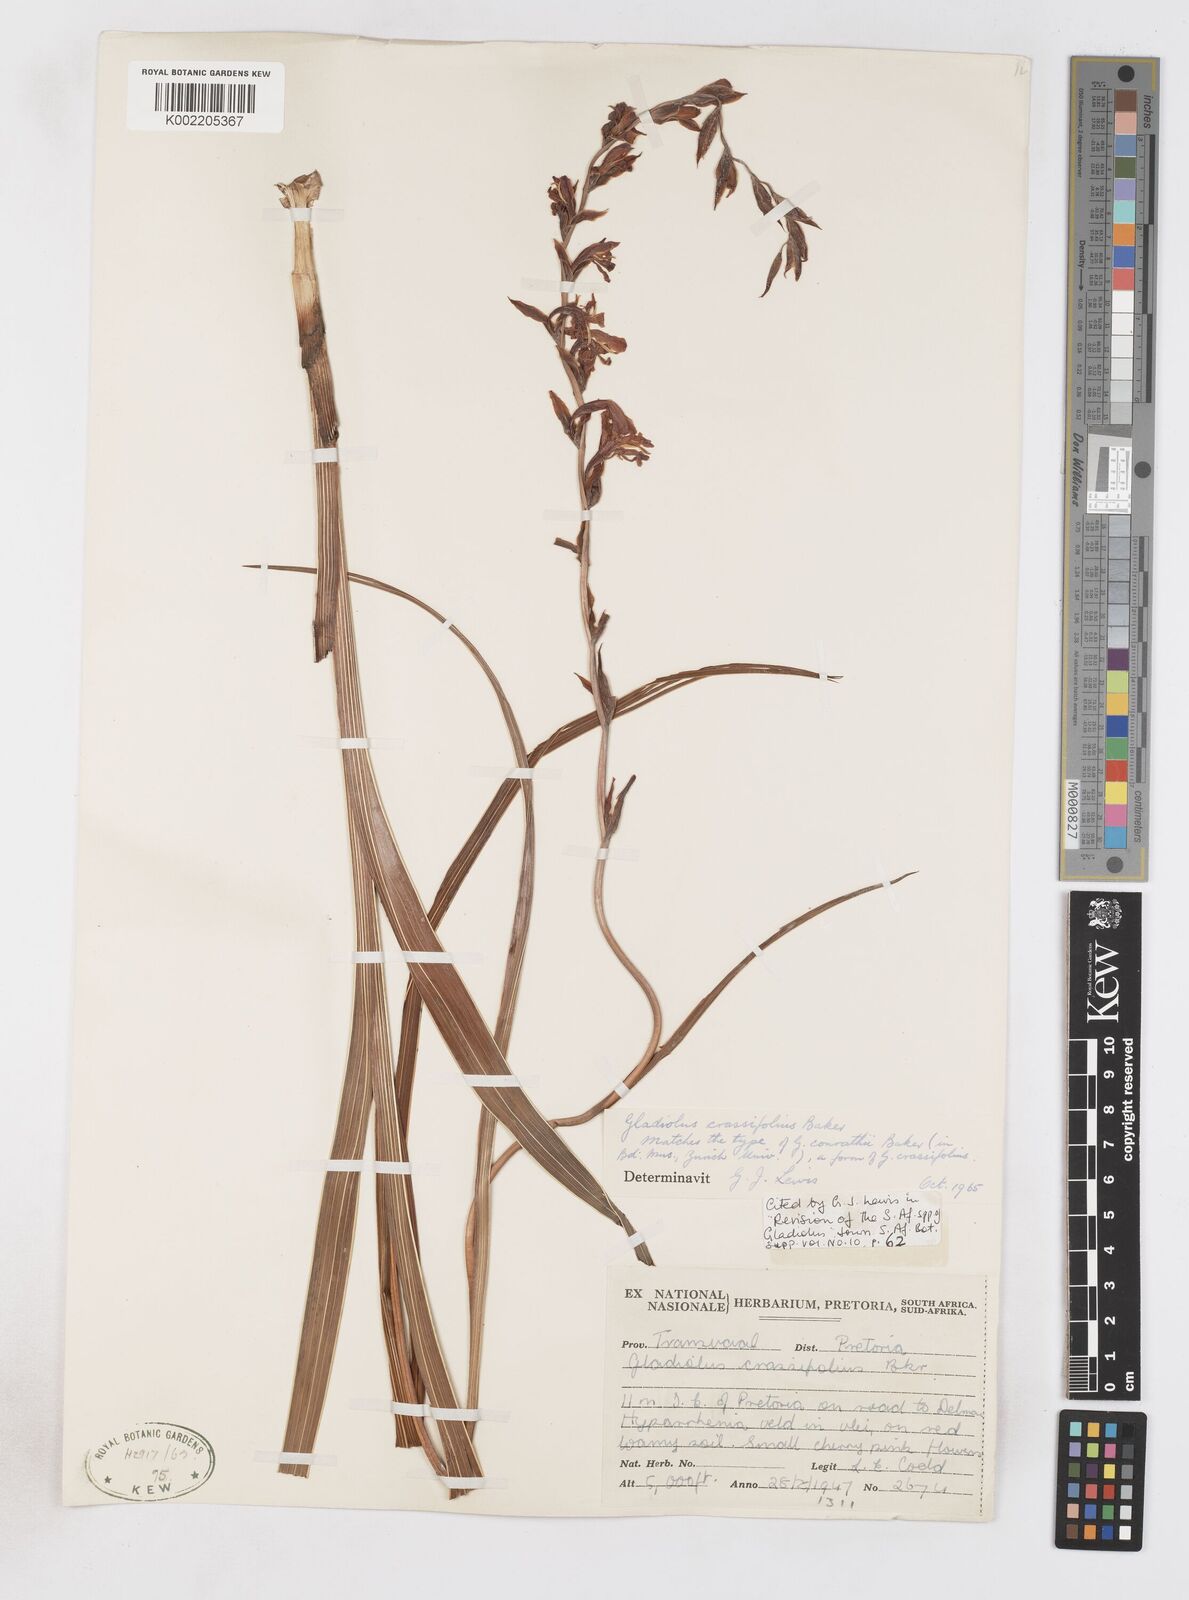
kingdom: Plantae
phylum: Tracheophyta
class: Liliopsida
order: Asparagales
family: Iridaceae
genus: Gladiolus
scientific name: Gladiolus crassifolius
